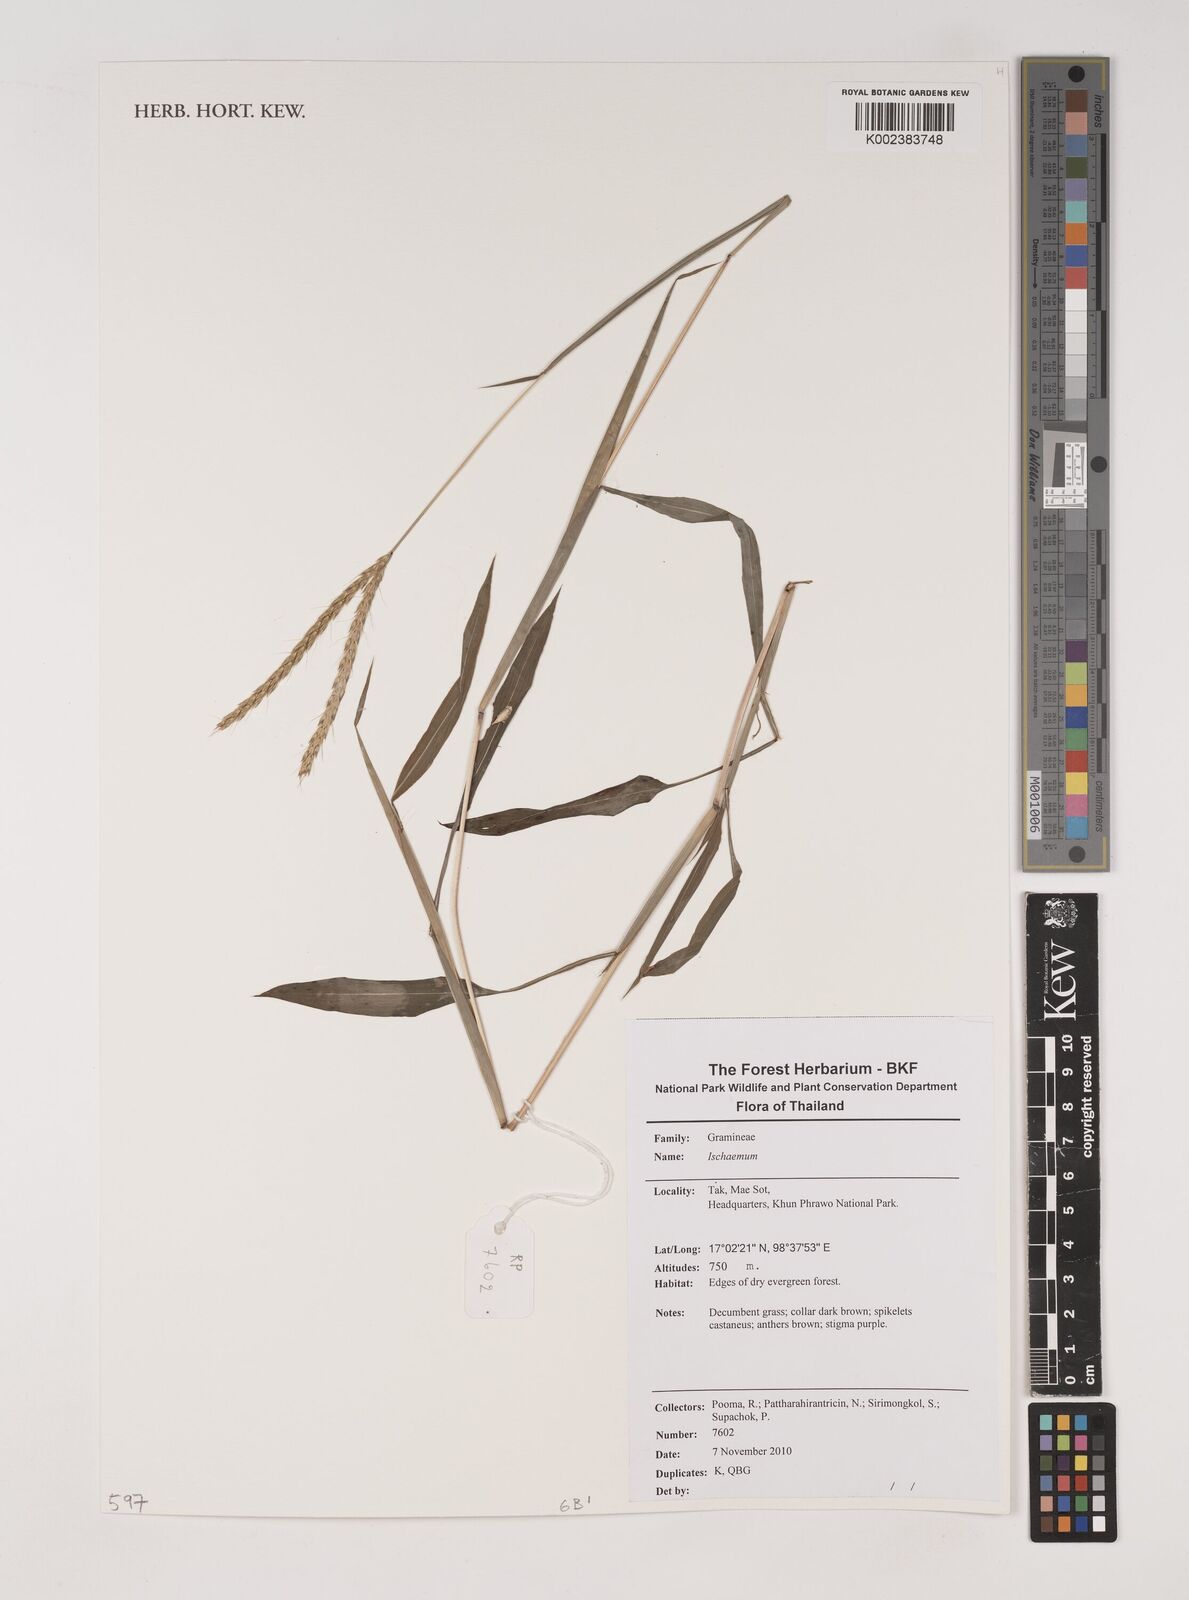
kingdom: Plantae
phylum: Tracheophyta
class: Liliopsida
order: Poales
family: Poaceae
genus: Ischaemum
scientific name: Ischaemum
